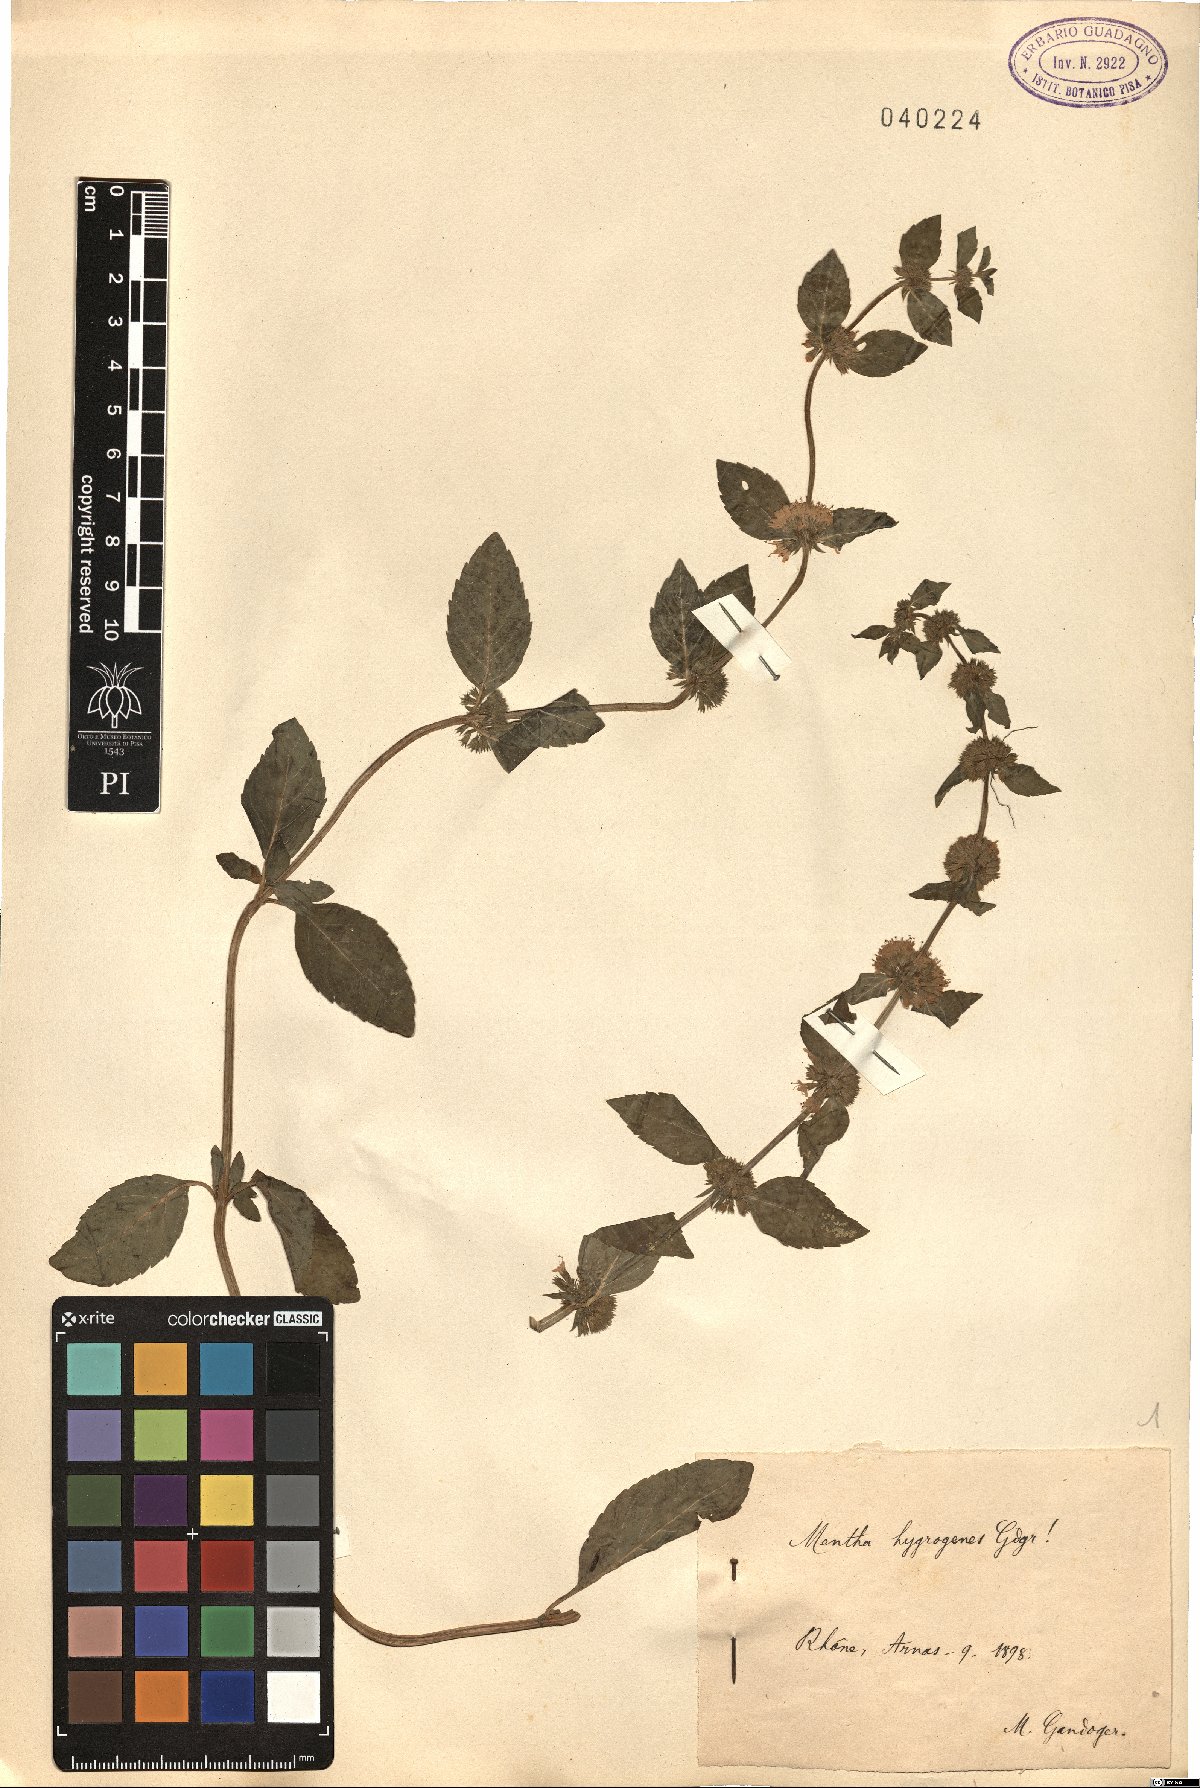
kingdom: Plantae
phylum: Tracheophyta
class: Magnoliopsida
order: Lamiales
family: Lamiaceae
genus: Mentha
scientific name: Mentha
